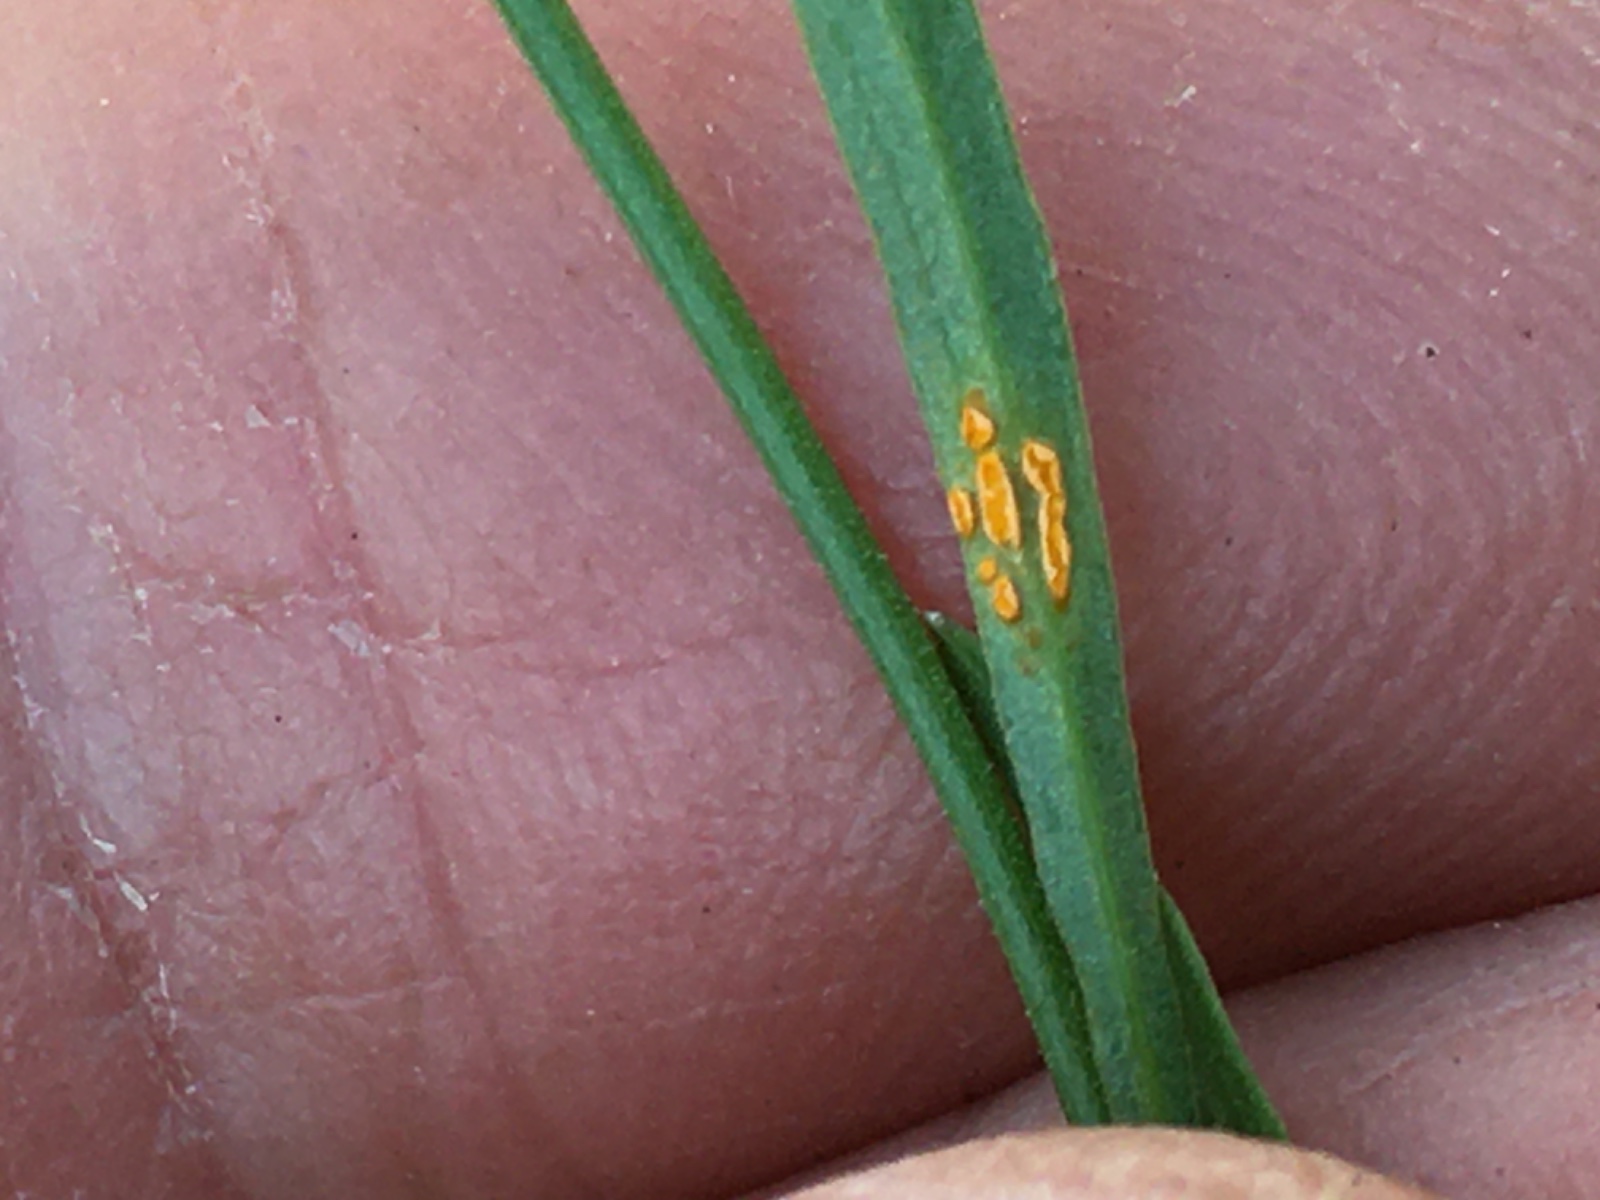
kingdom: Fungi
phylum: Basidiomycota
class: Pucciniomycetes
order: Pucciniales
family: Coleosporiaceae
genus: Coleosporium
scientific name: Coleosporium tussilaginis
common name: almindelig fyrrenålerust
